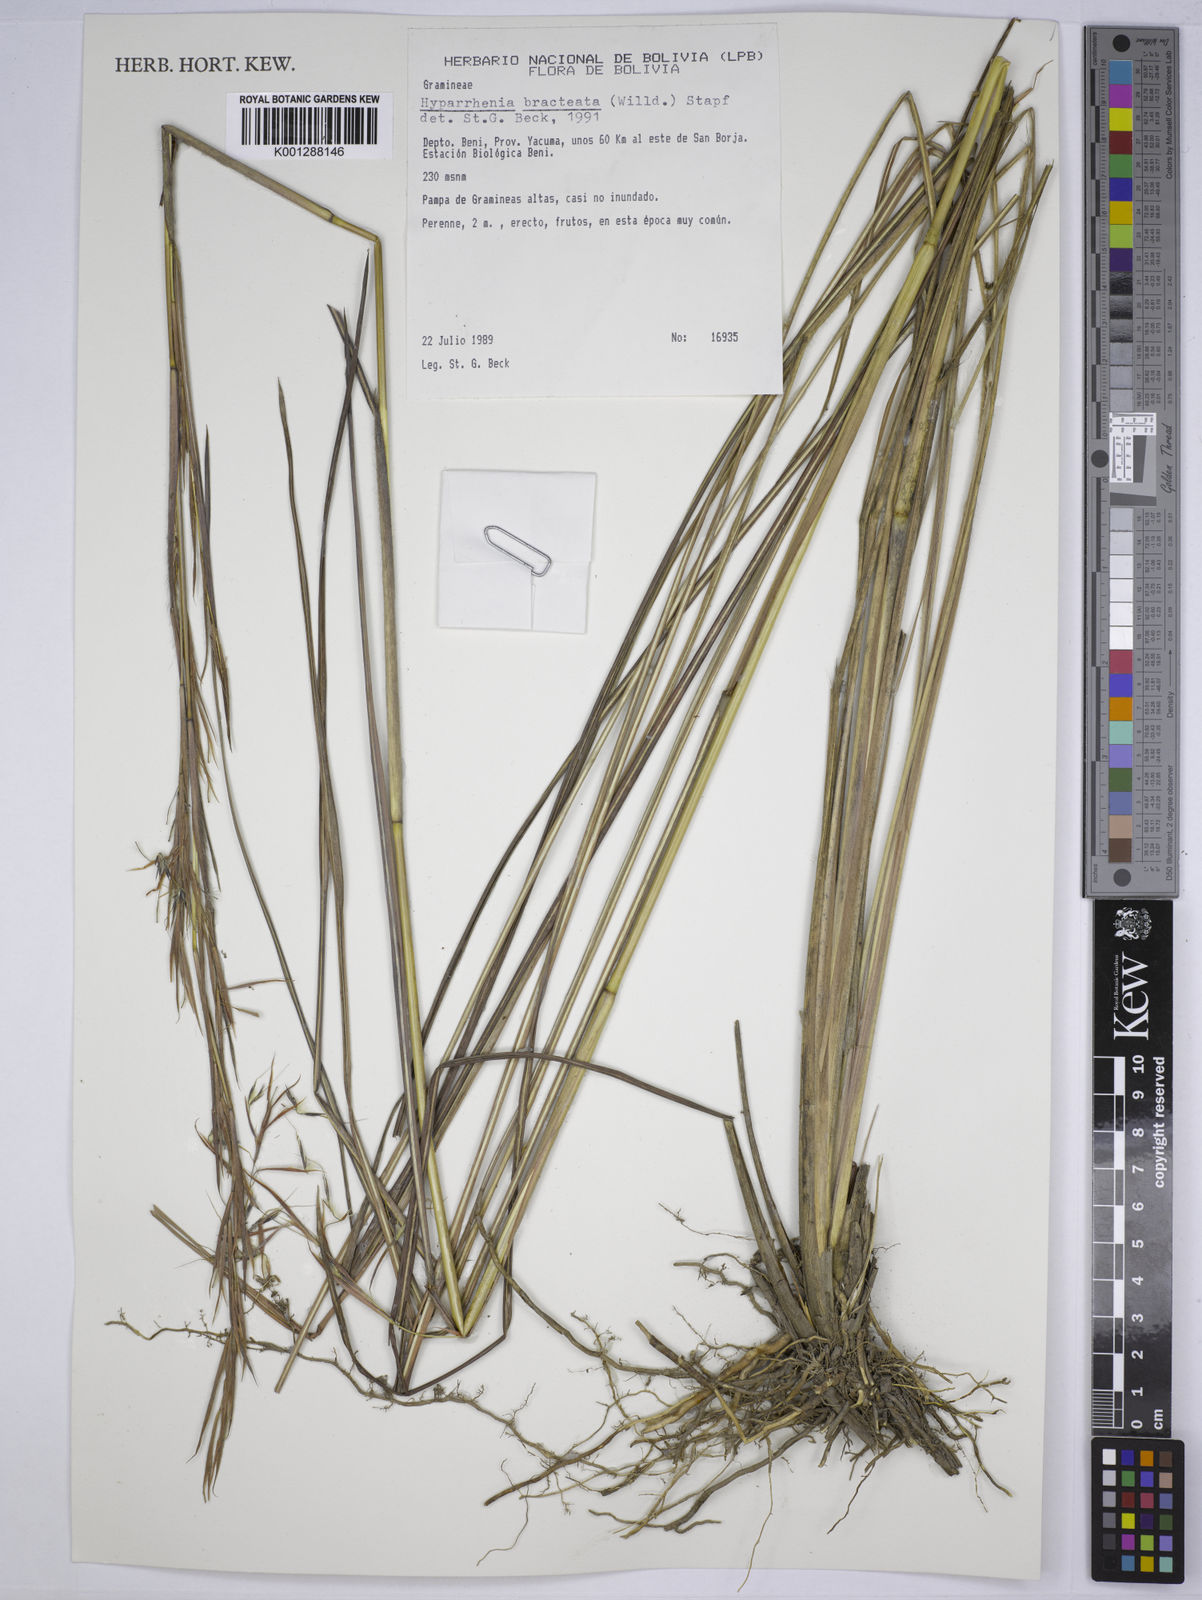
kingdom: Plantae
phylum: Tracheophyta
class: Liliopsida
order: Poales
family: Poaceae
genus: Hyparrhenia
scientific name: Hyparrhenia bracteata
